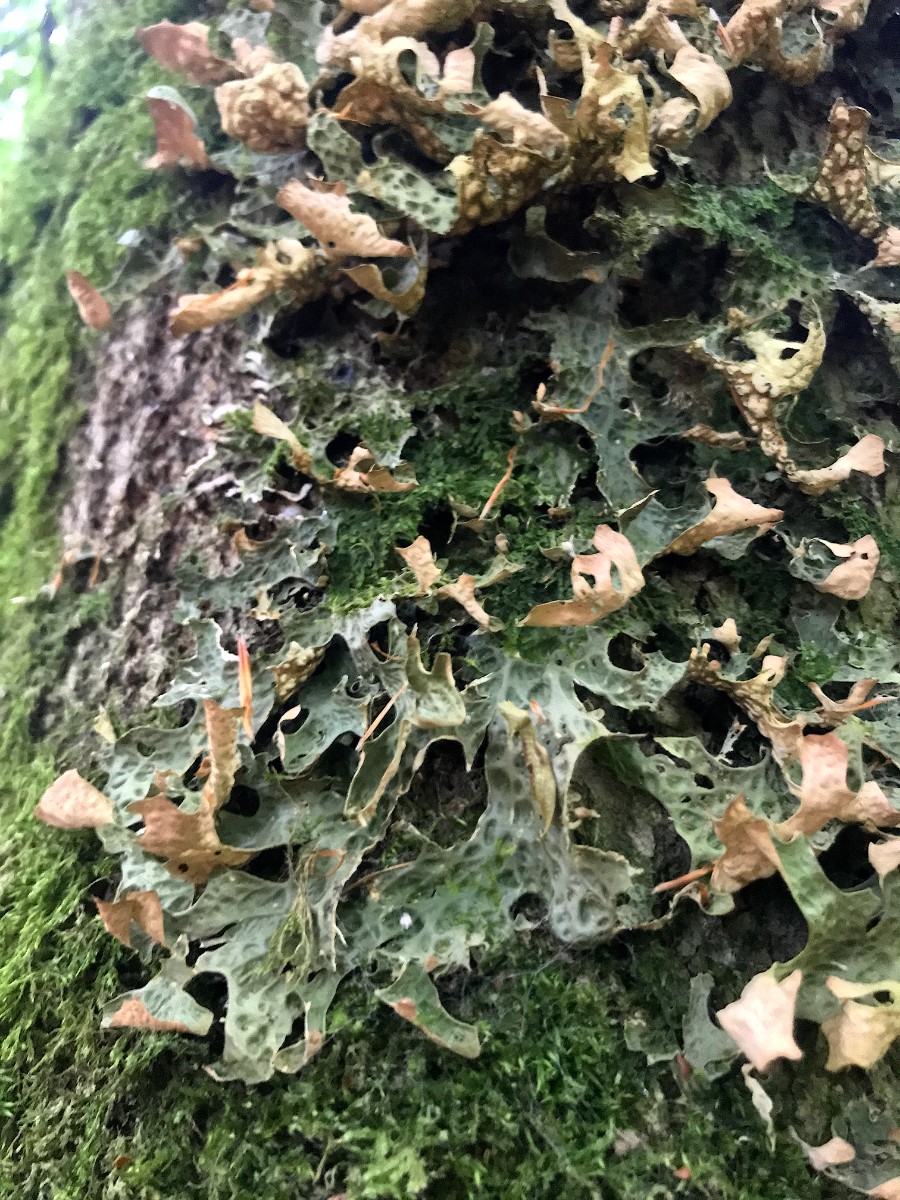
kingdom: Fungi
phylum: Ascomycota
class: Lecanoromycetes
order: Peltigerales
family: Lobariaceae
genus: Lobaria
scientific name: Lobaria pulmonaria
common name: almindelig lungelav
